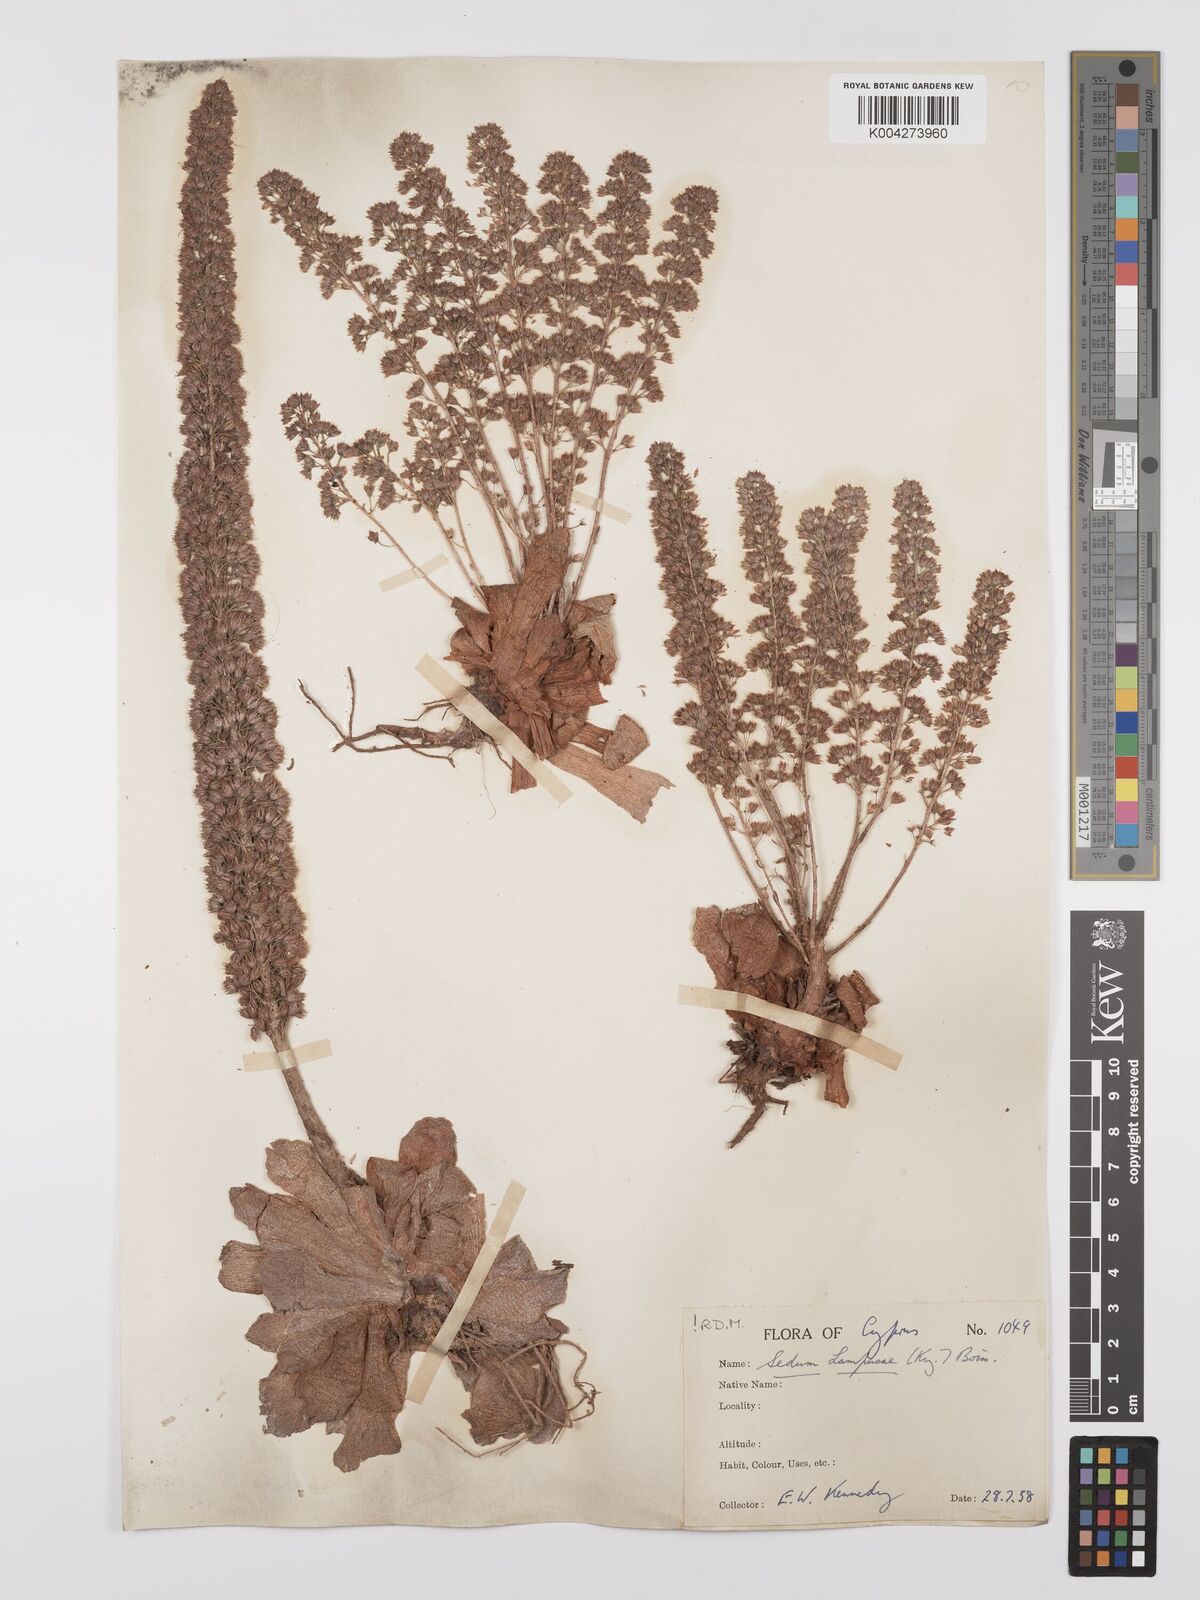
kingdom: Plantae
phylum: Tracheophyta
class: Magnoliopsida
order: Saxifragales
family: Crassulaceae
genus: Sedum
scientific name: Sedum lampusae
